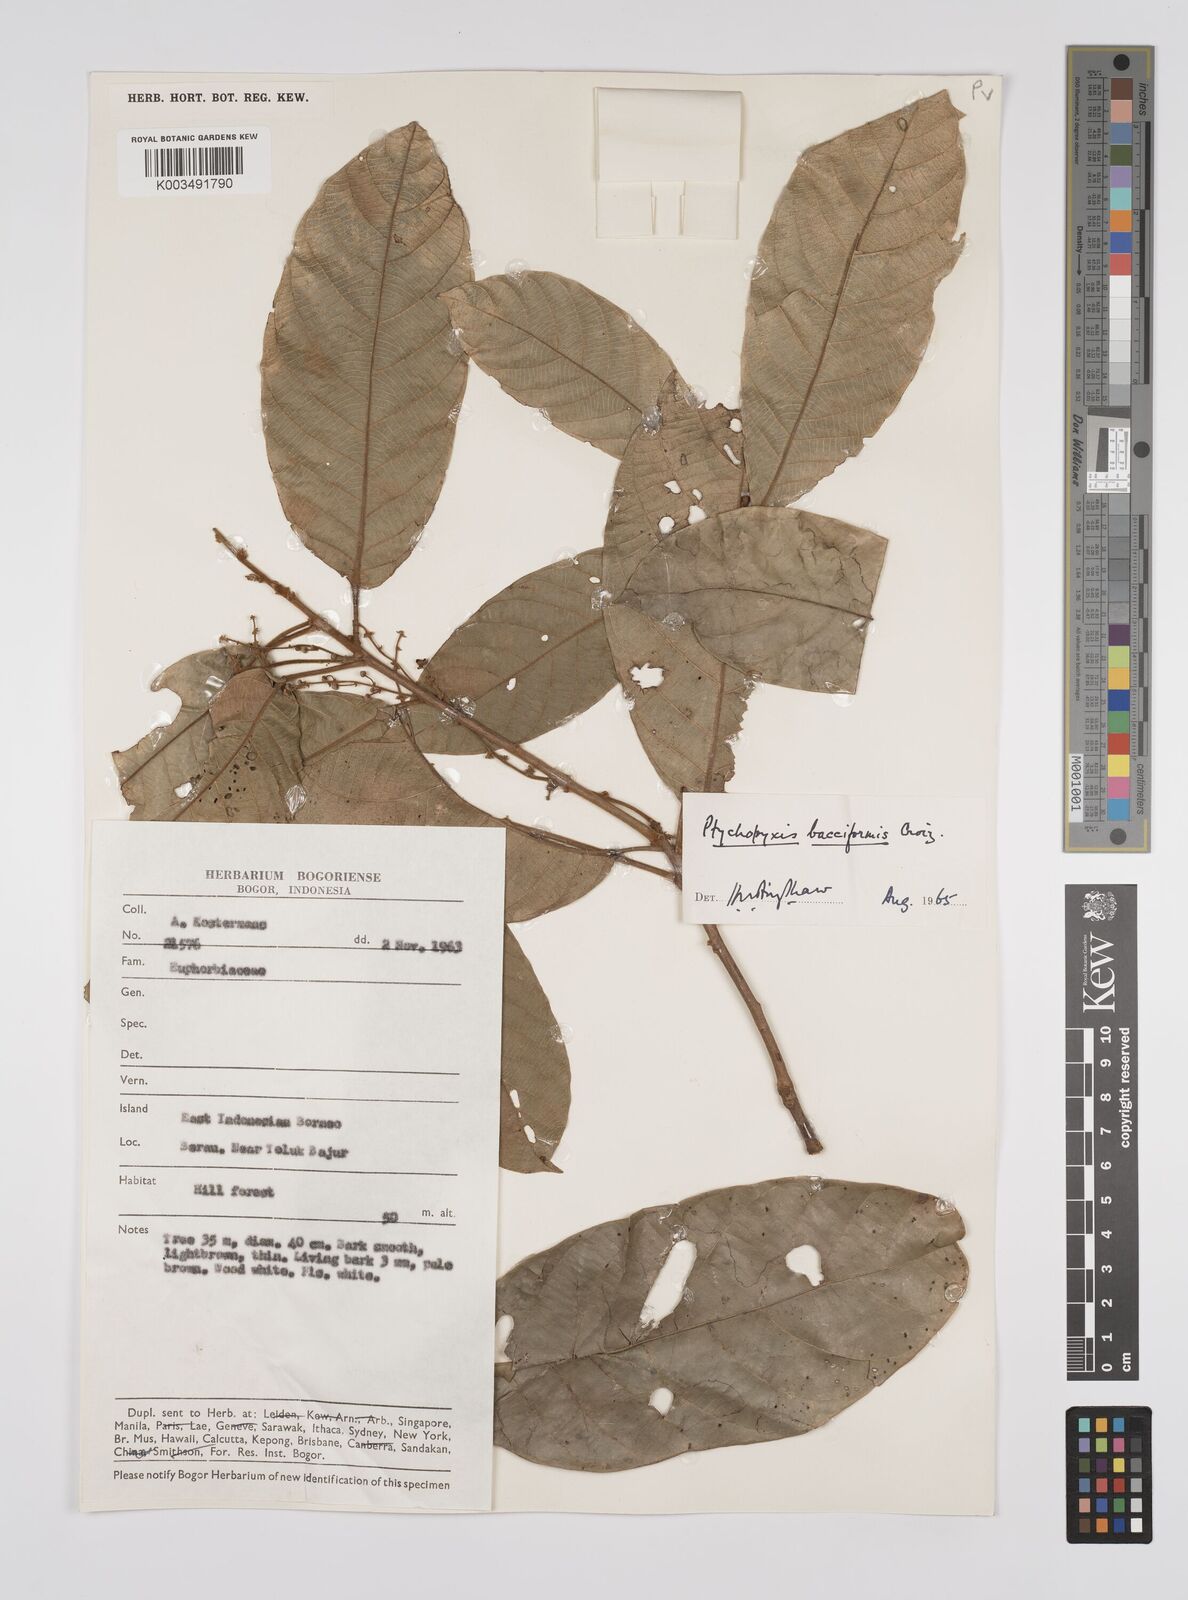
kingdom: Plantae
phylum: Tracheophyta
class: Magnoliopsida
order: Malpighiales
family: Euphorbiaceae
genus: Ptychopyxis
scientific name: Ptychopyxis bacciformis
